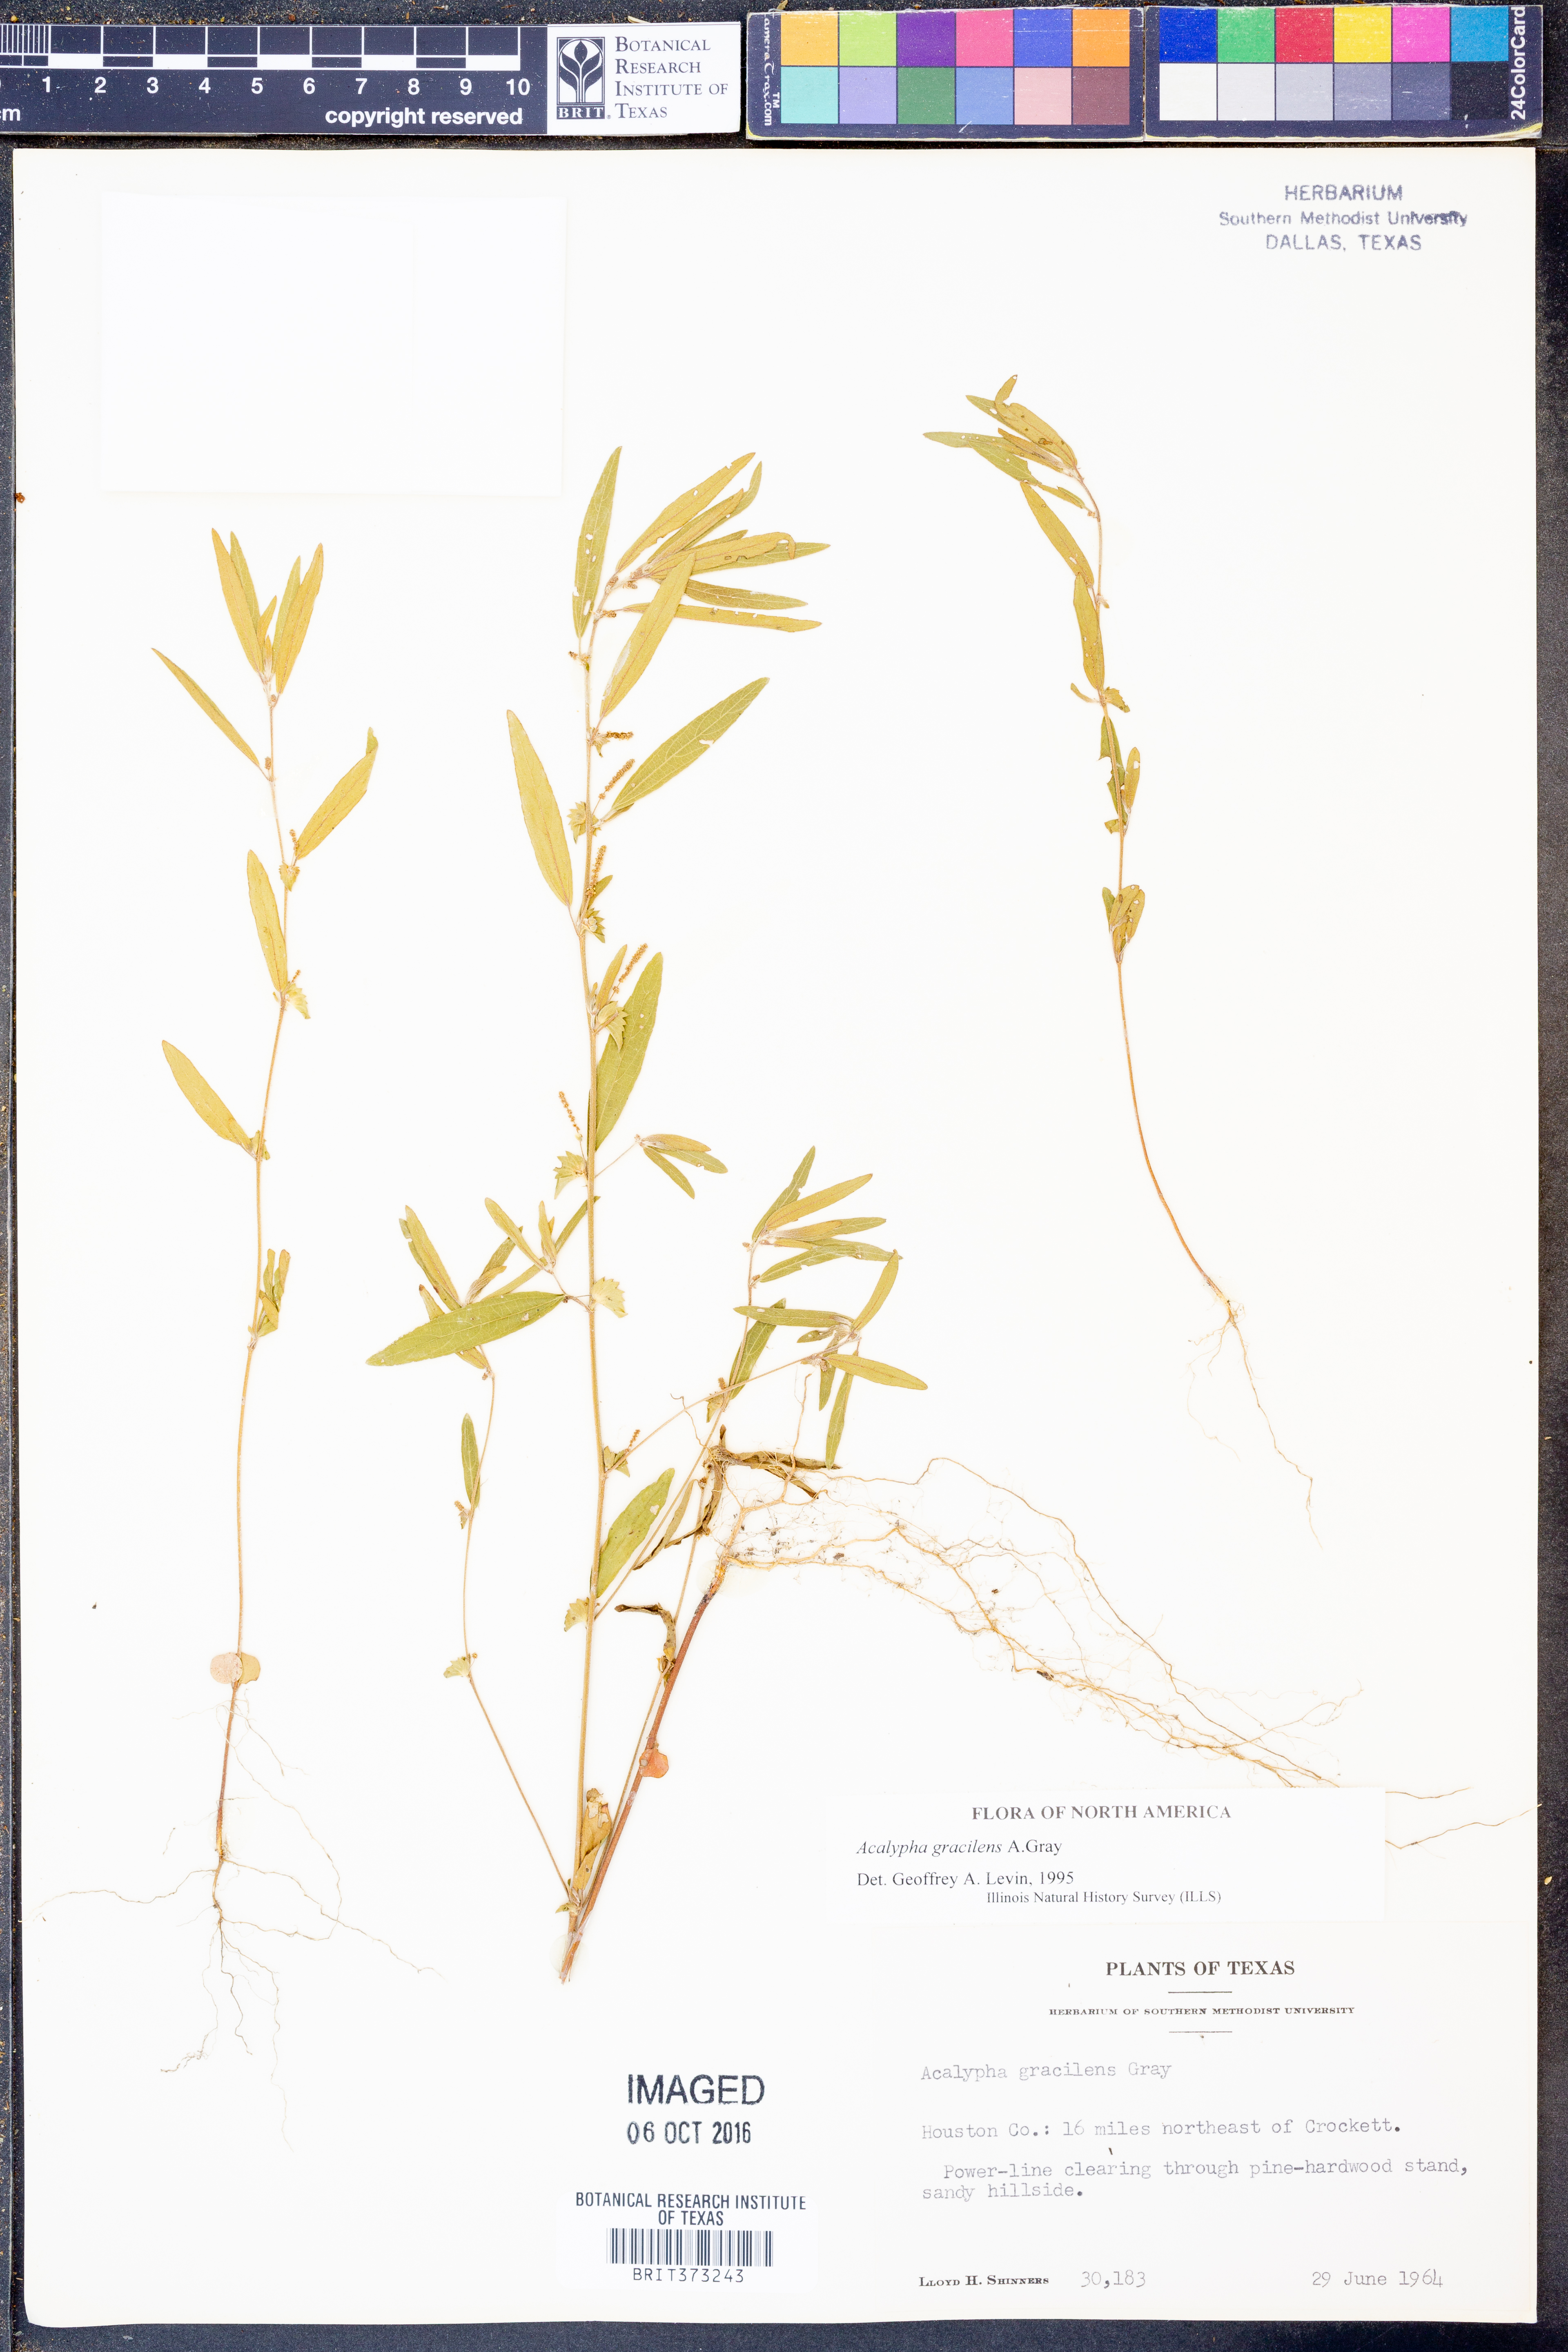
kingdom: Plantae
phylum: Tracheophyta
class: Magnoliopsida
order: Malpighiales
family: Euphorbiaceae
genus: Acalypha
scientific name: Acalypha gracilens
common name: Slender three-seeded mercury
